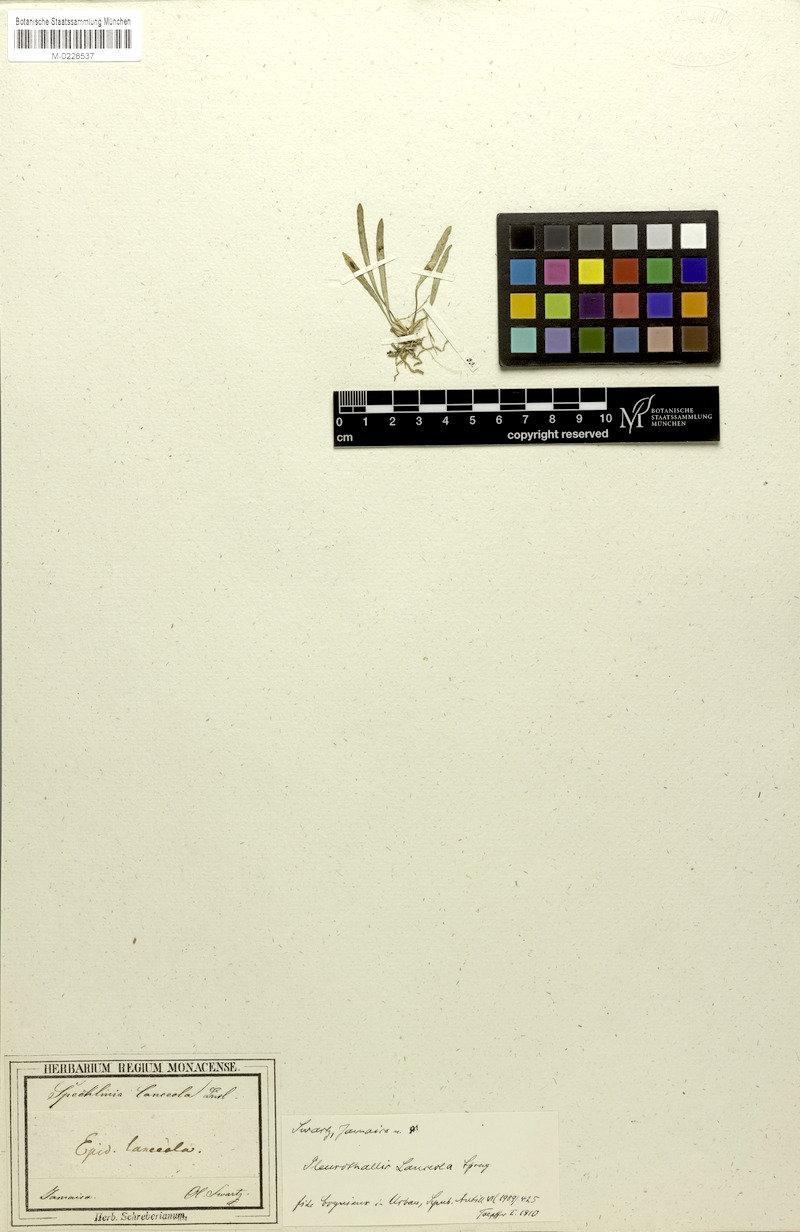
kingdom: Plantae
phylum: Tracheophyta
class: Liliopsida
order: Asparagales
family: Orchidaceae
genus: Specklinia
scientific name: Specklinia lanceola
